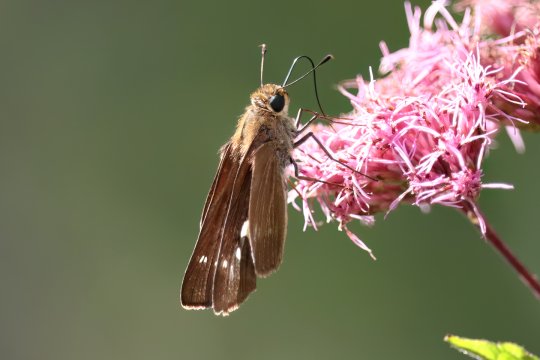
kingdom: Animalia
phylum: Arthropoda
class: Insecta
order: Lepidoptera
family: Hesperiidae
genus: Panoquina
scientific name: Panoquina ocola
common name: Ocola Skipper
